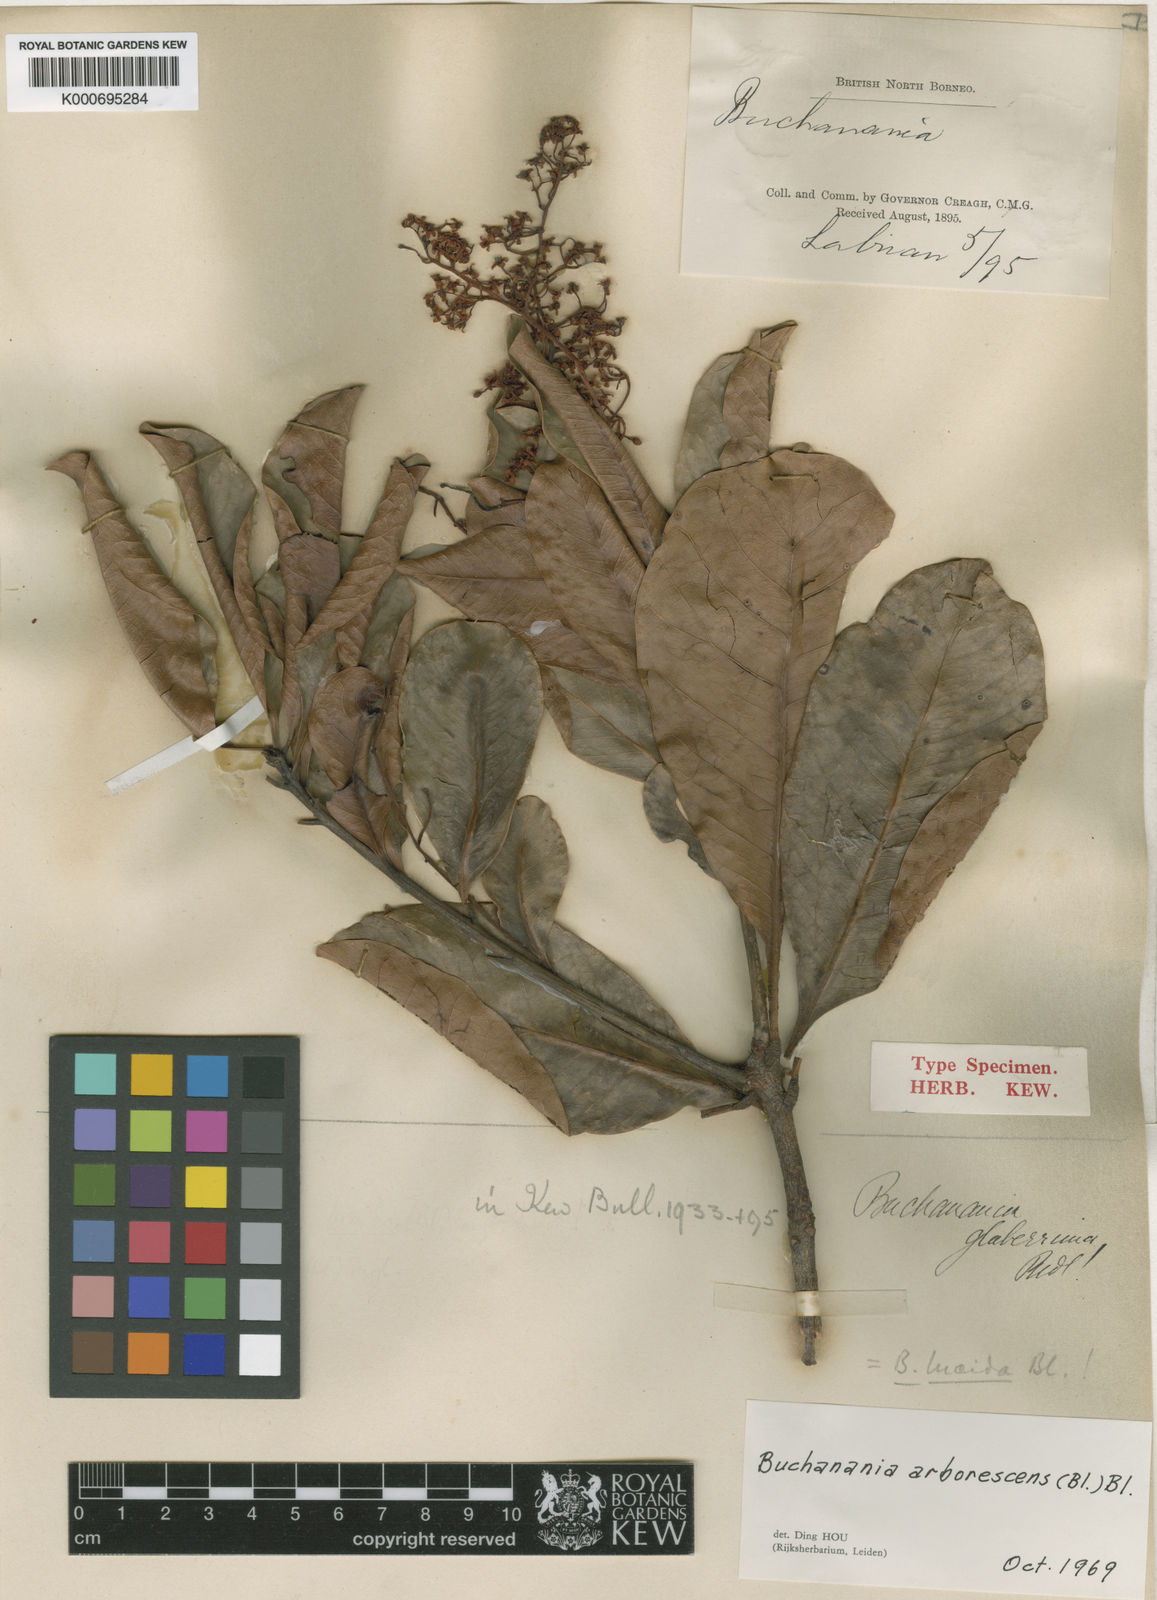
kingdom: Plantae
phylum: Tracheophyta
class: Magnoliopsida
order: Sapindales
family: Anacardiaceae
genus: Buchanania
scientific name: Buchanania arborescens
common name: Sparrow’s mango
